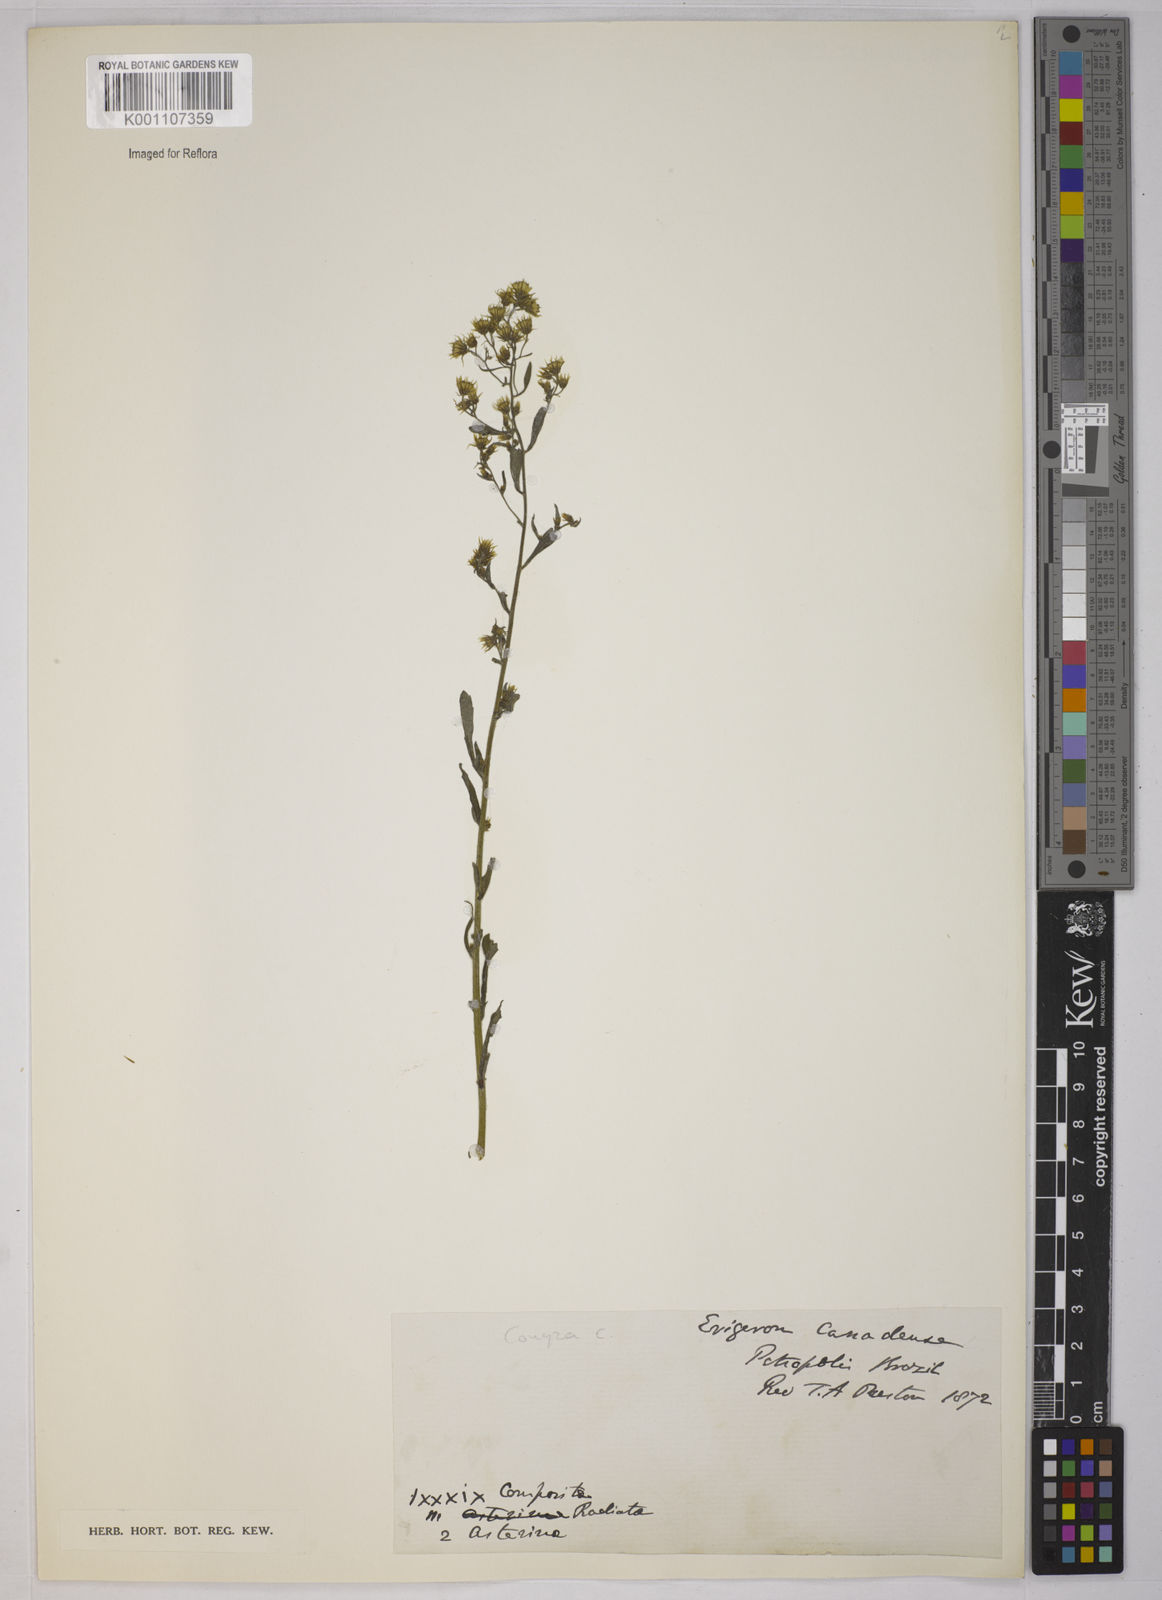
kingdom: Plantae
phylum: Tracheophyta
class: Magnoliopsida
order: Asterales
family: Asteraceae
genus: Erigeron
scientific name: Erigeron canadensis
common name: Canadian fleabane
